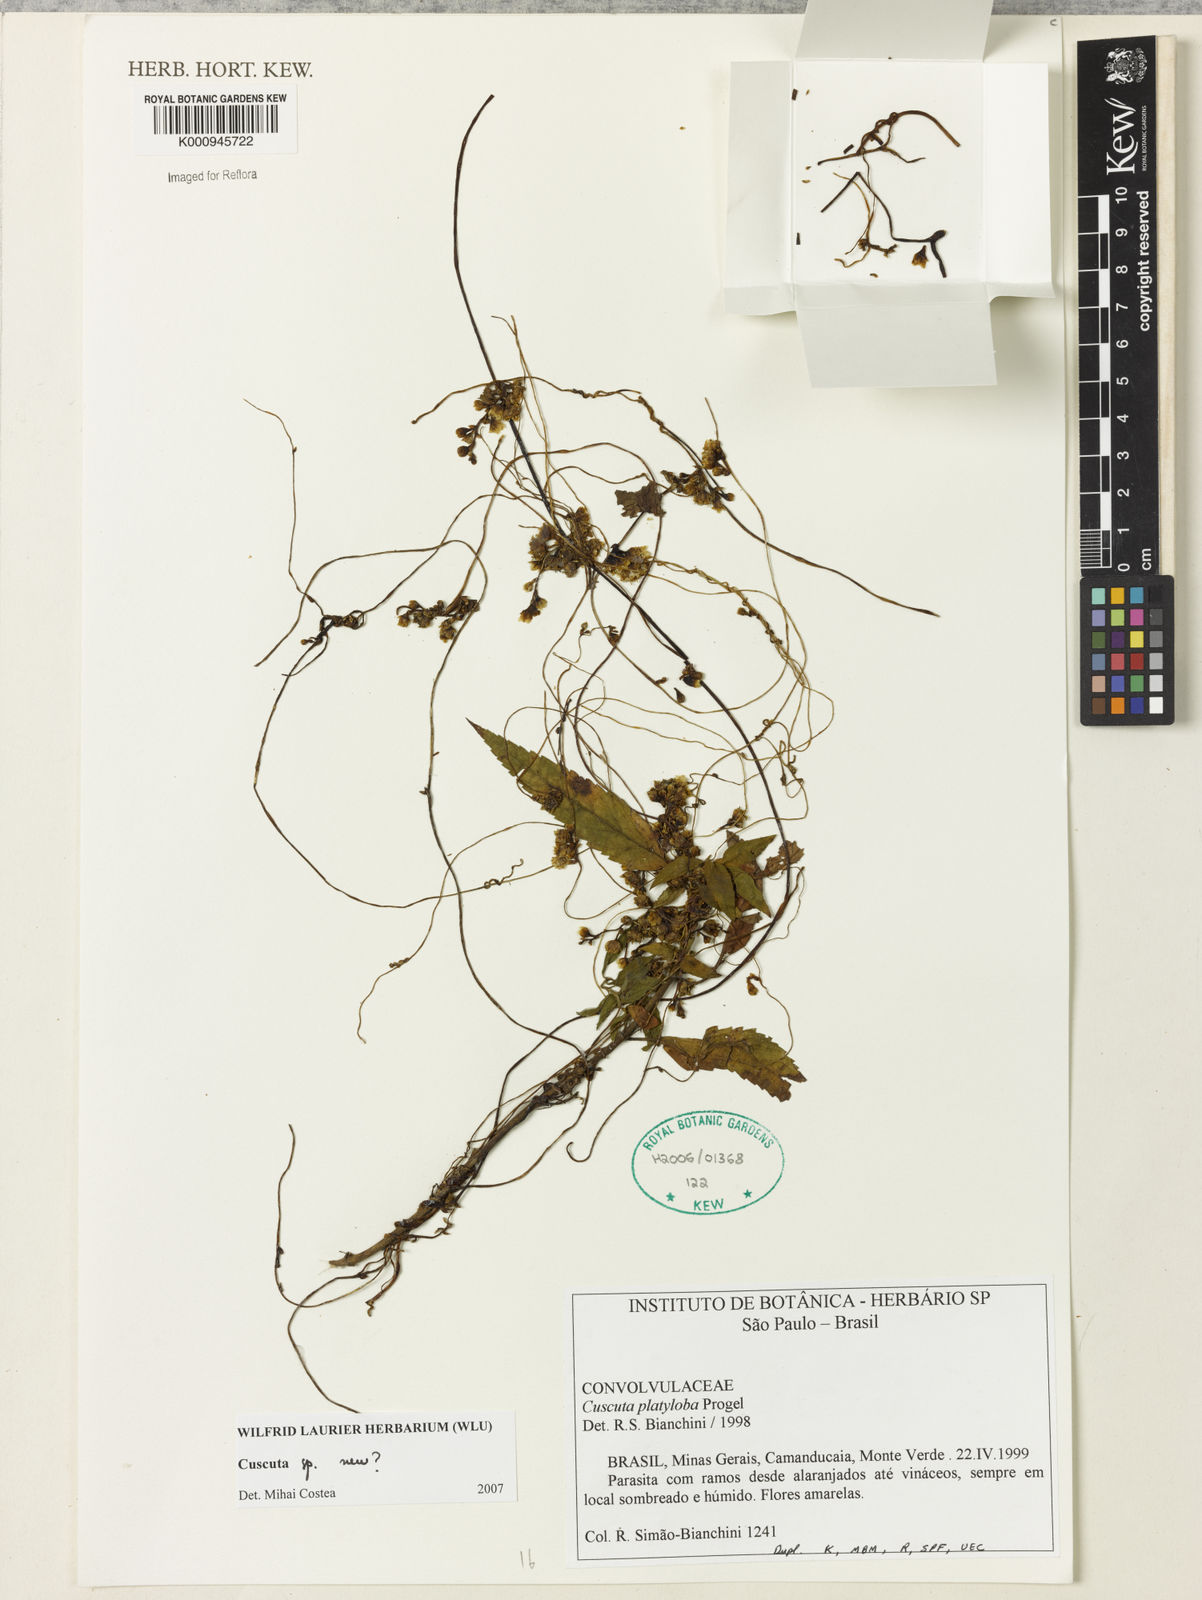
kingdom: Plantae
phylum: Tracheophyta
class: Magnoliopsida
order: Solanales
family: Convolvulaceae
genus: Cuscuta
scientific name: Cuscuta
